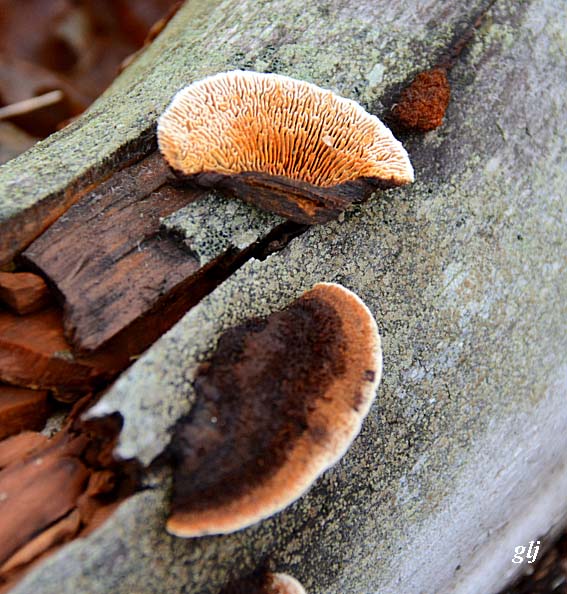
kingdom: Fungi
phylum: Basidiomycota
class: Agaricomycetes
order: Gloeophyllales
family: Gloeophyllaceae
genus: Gloeophyllum
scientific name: Gloeophyllum sepiarium
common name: fyrre-korkhat
